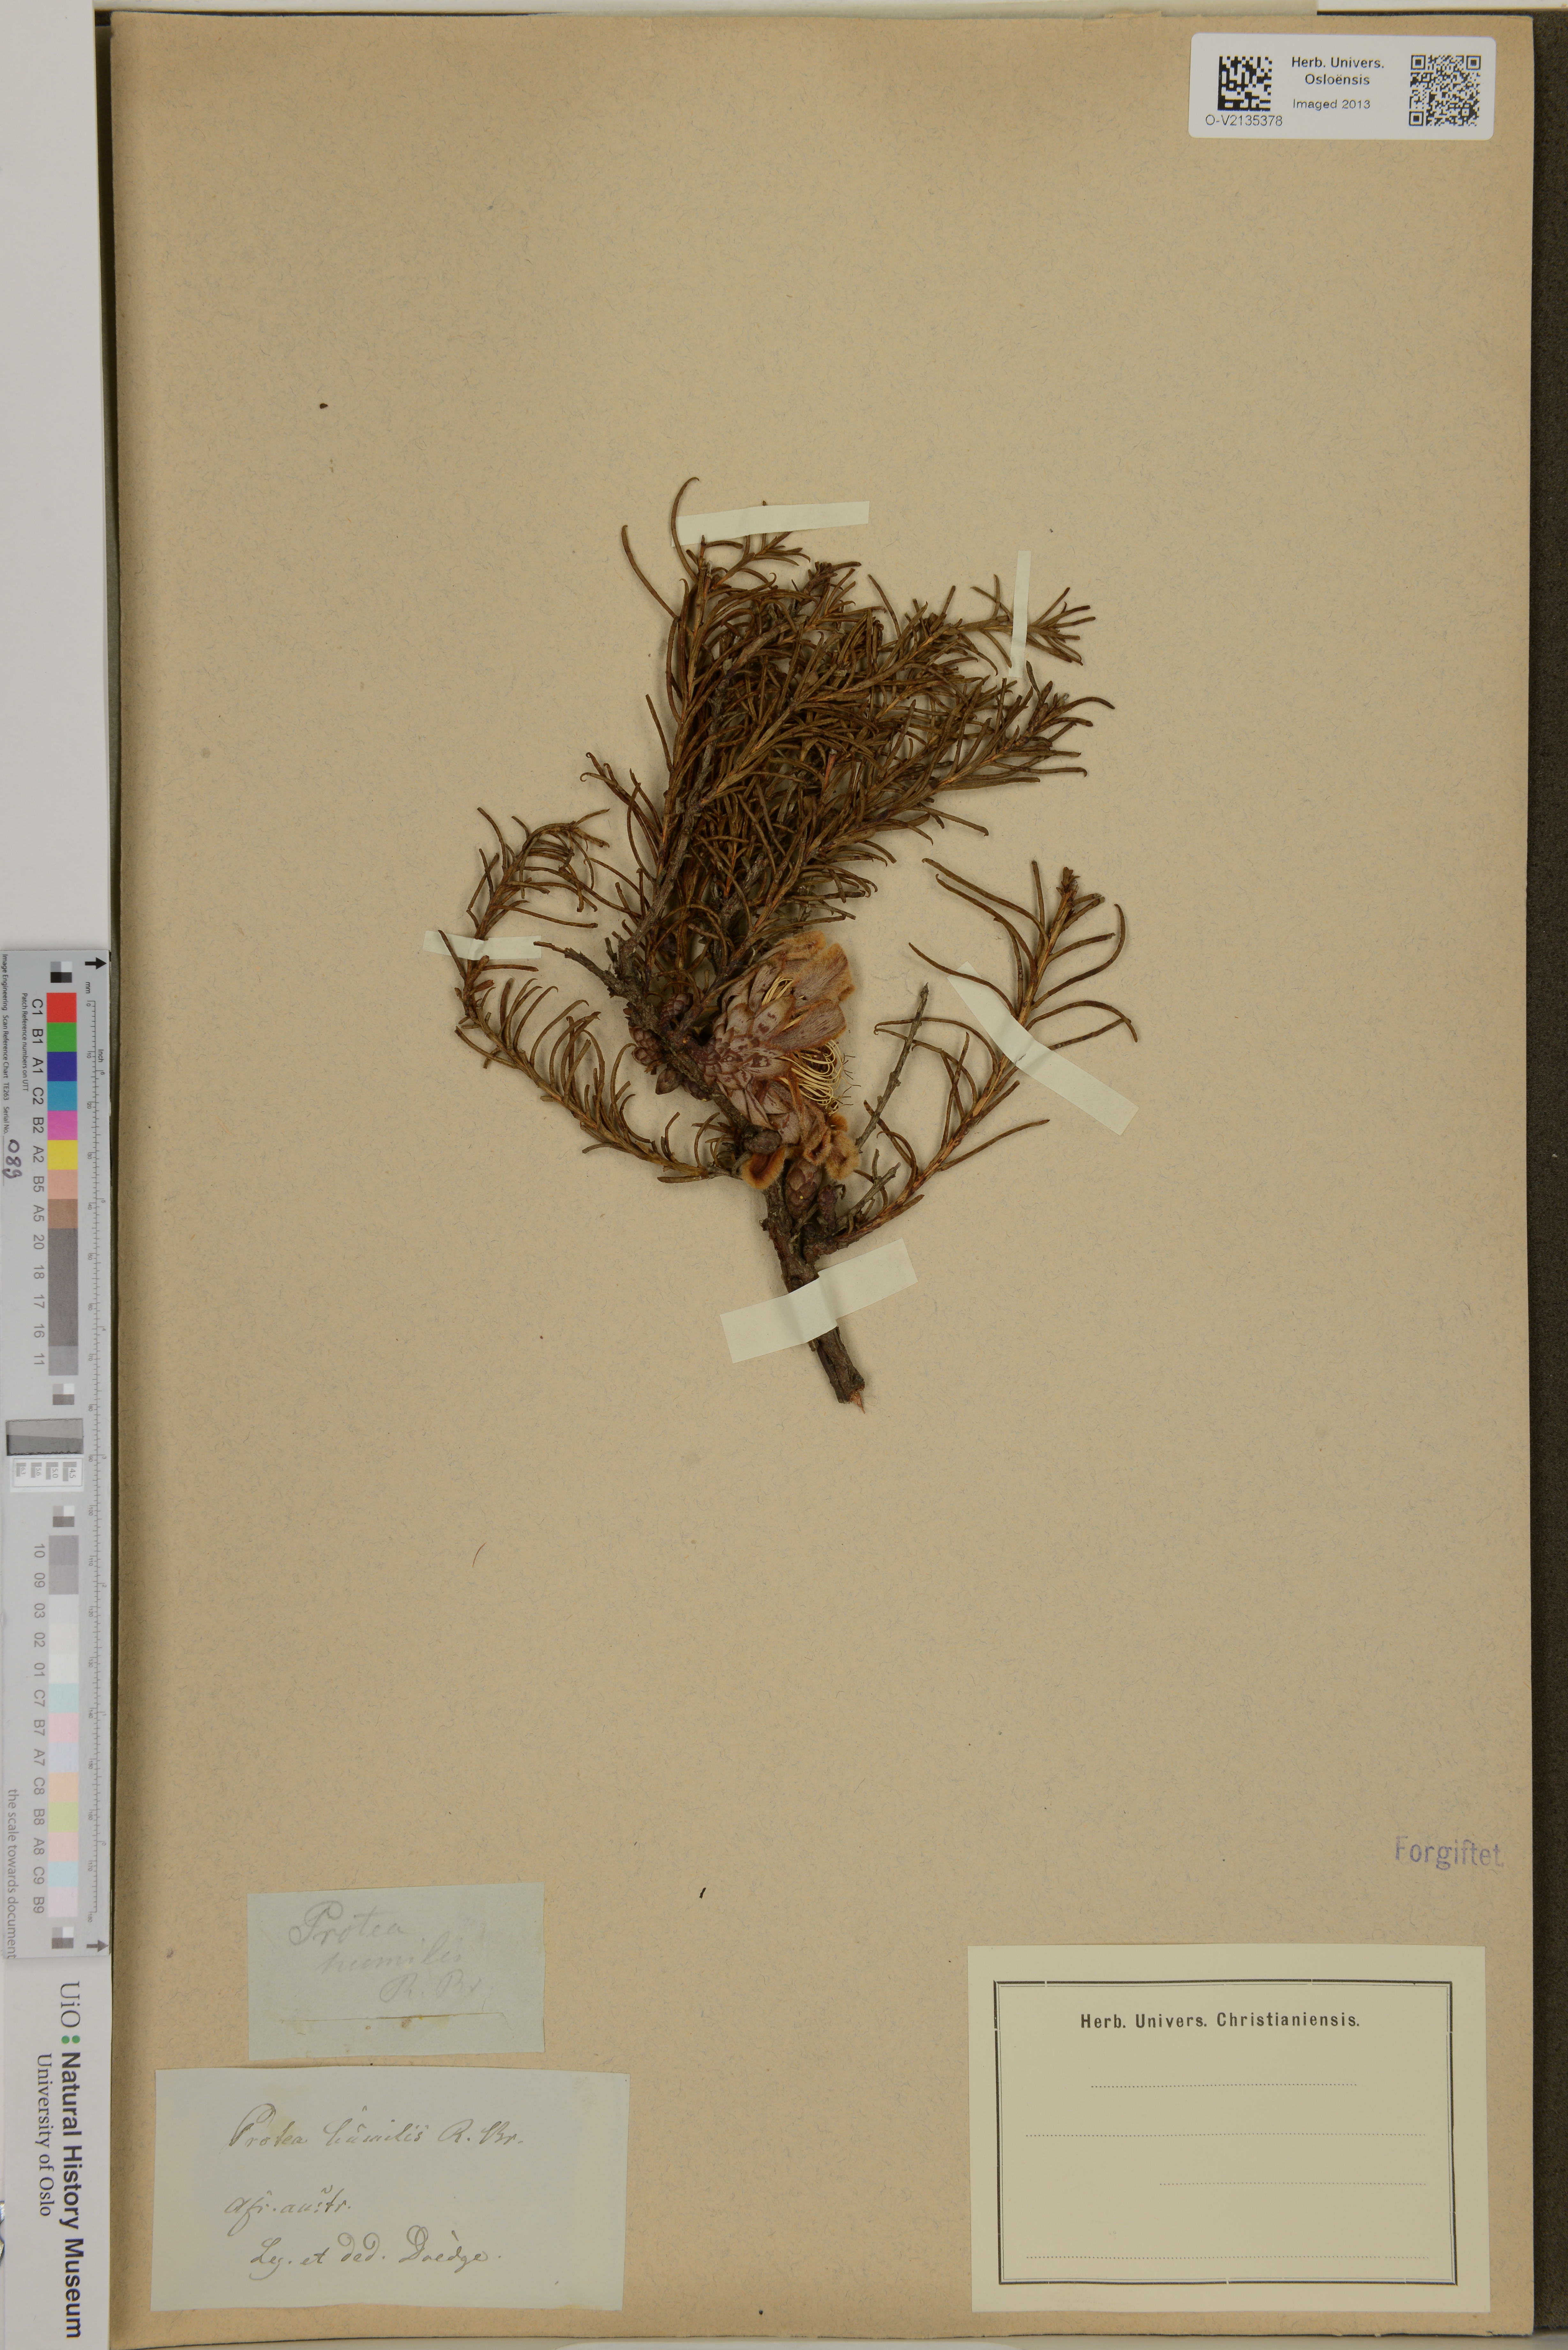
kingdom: Plantae
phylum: Tracheophyta
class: Magnoliopsida
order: Proteales
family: Proteaceae
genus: Protea
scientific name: Protea humiflora
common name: Patent-leaf sugarbush
